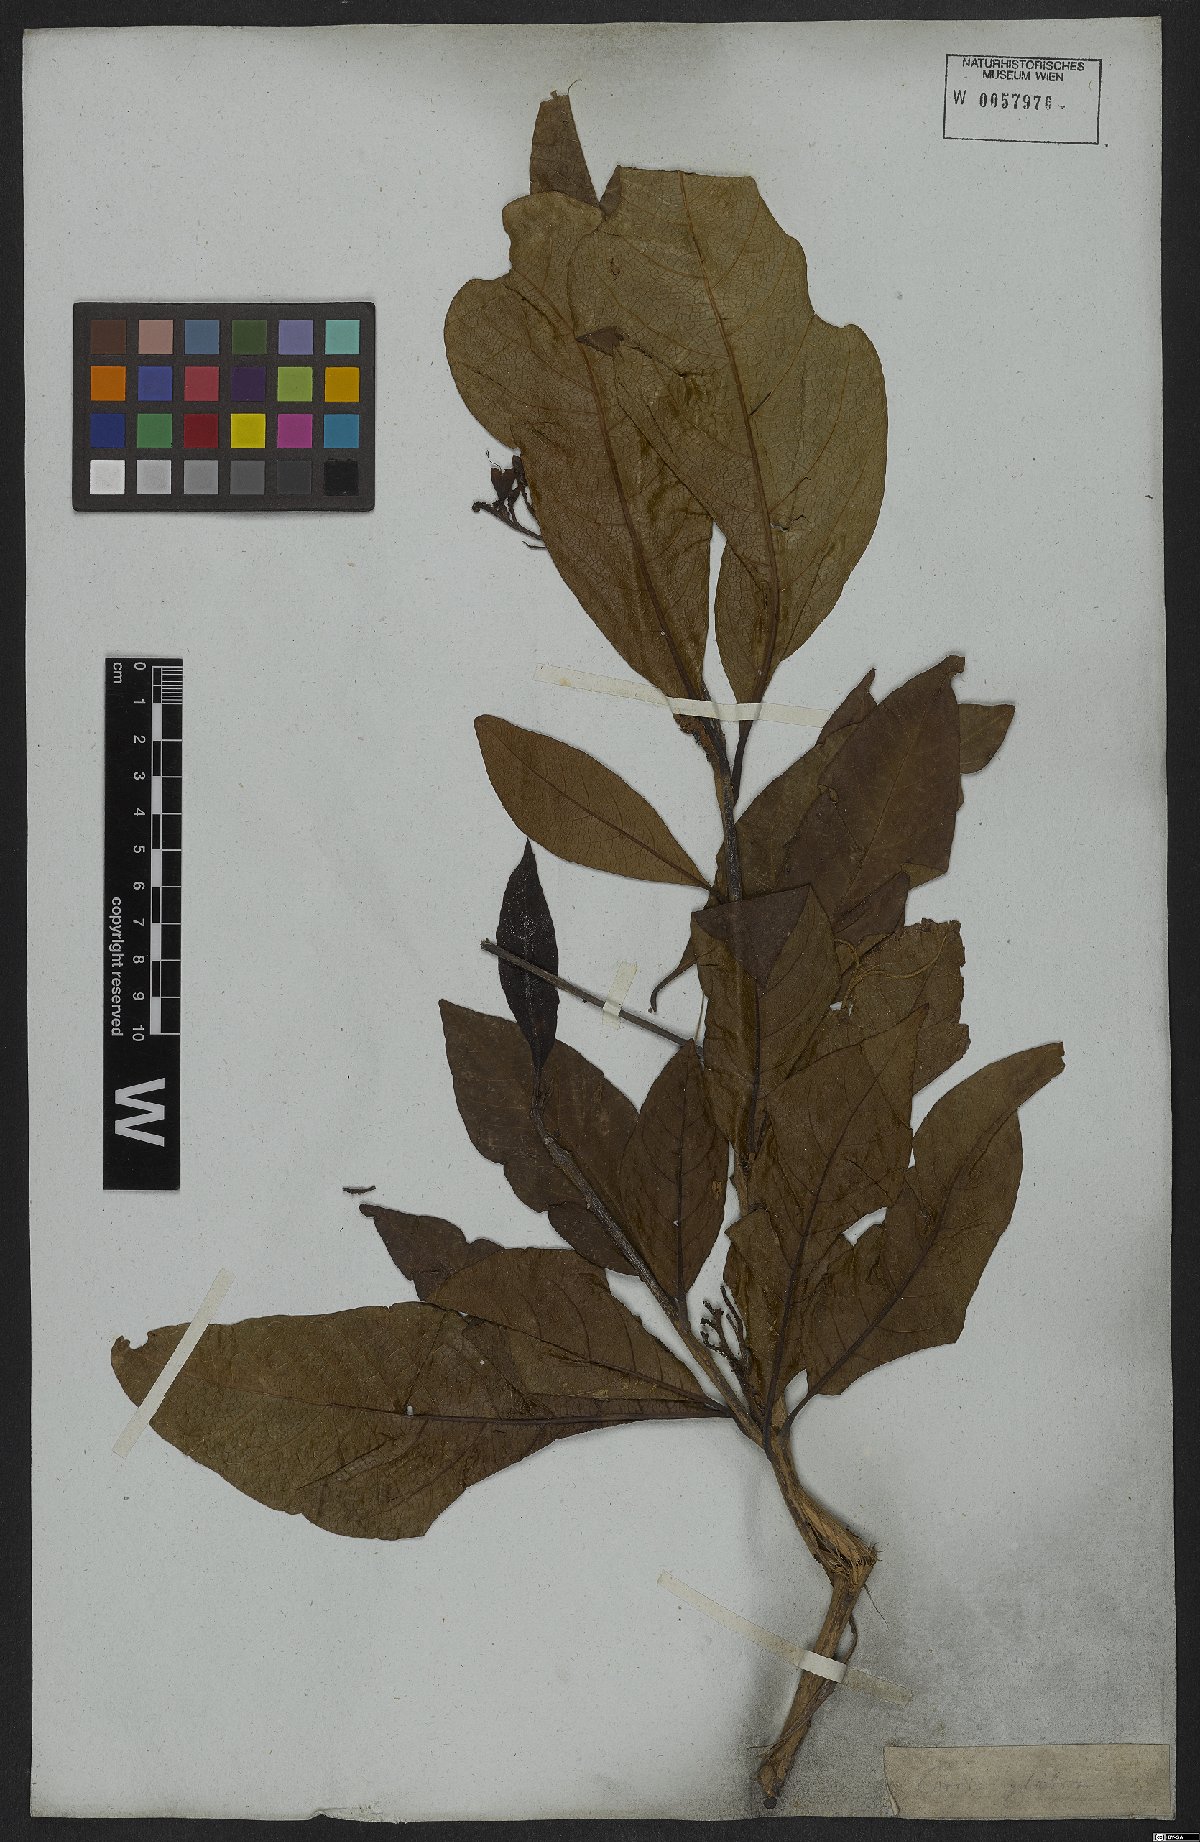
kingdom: Plantae
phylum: Tracheophyta
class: Magnoliopsida
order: Boraginales
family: Cordiaceae
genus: Cordia
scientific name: Cordia glabra
